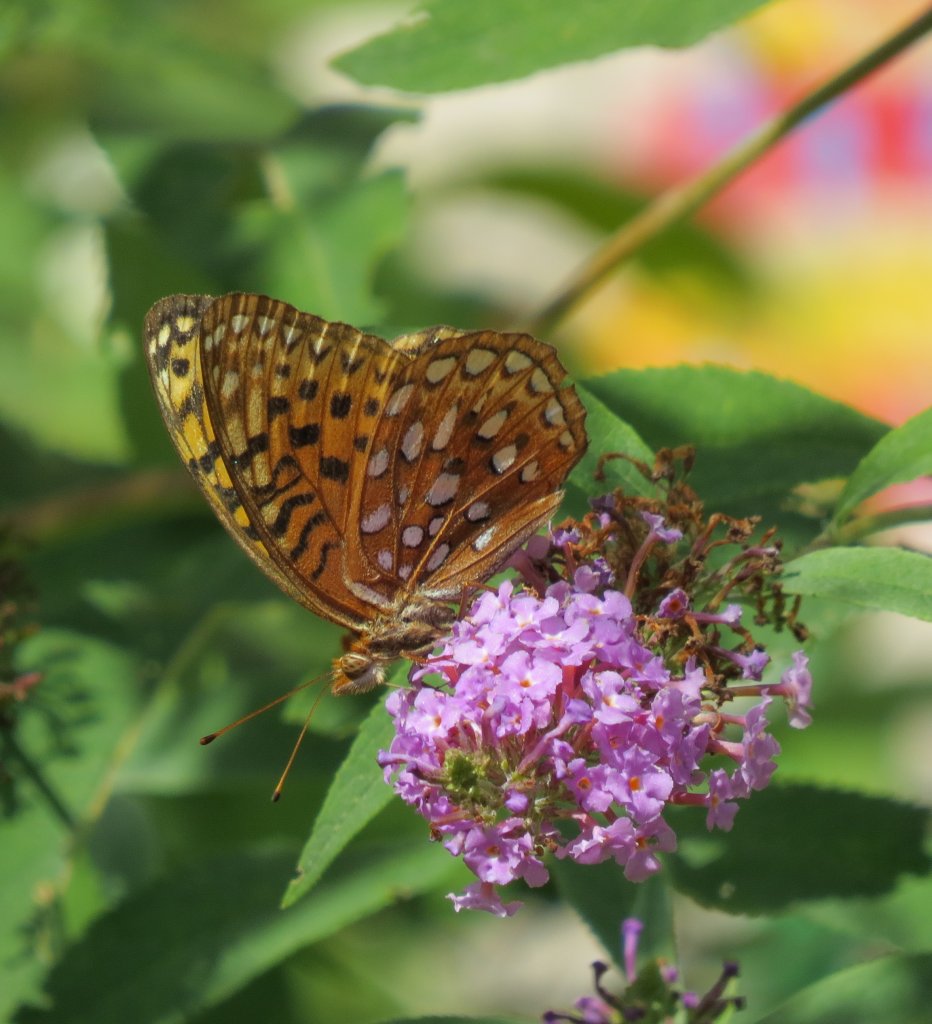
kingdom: Animalia
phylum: Arthropoda
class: Insecta
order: Lepidoptera
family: Nymphalidae
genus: Speyeria
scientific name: Speyeria aphrodite
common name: Aphrodite Fritillary
